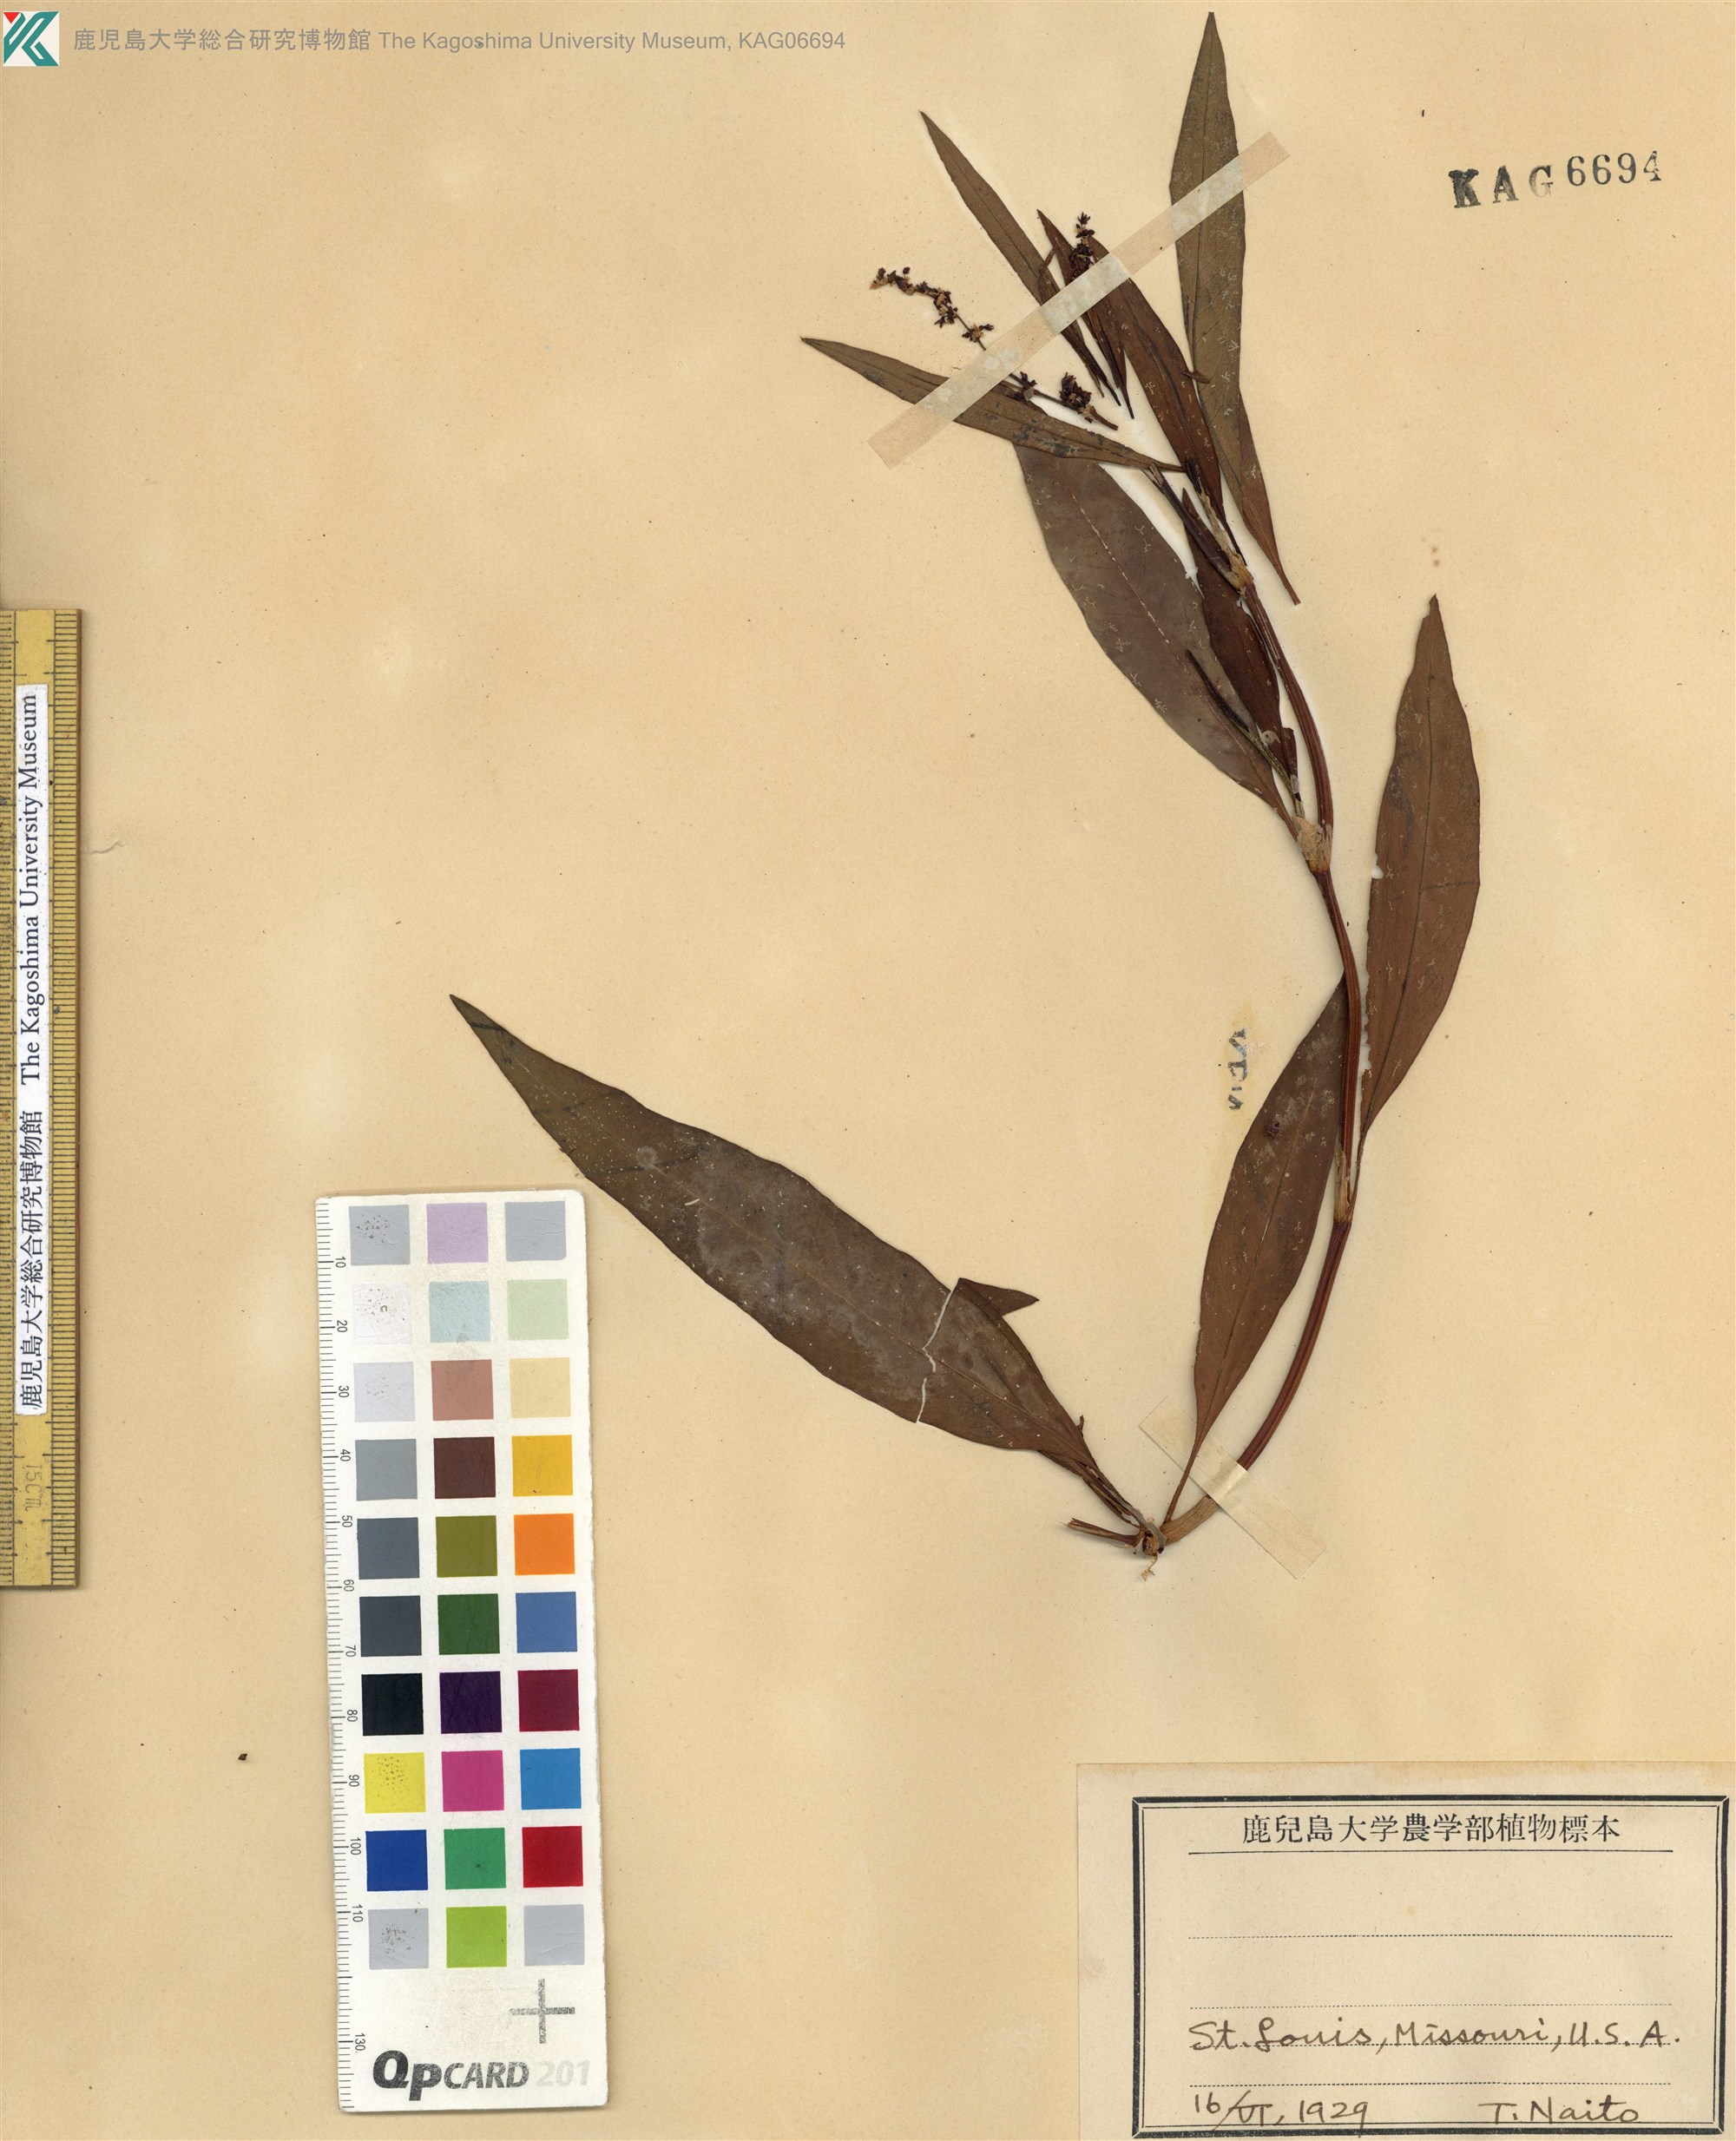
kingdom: Plantae
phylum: Tracheophyta
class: Magnoliopsida
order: Caryophyllales
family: Polygonaceae
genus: Rumex
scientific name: Rumex salicifolius
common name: Willow-leaved dock
